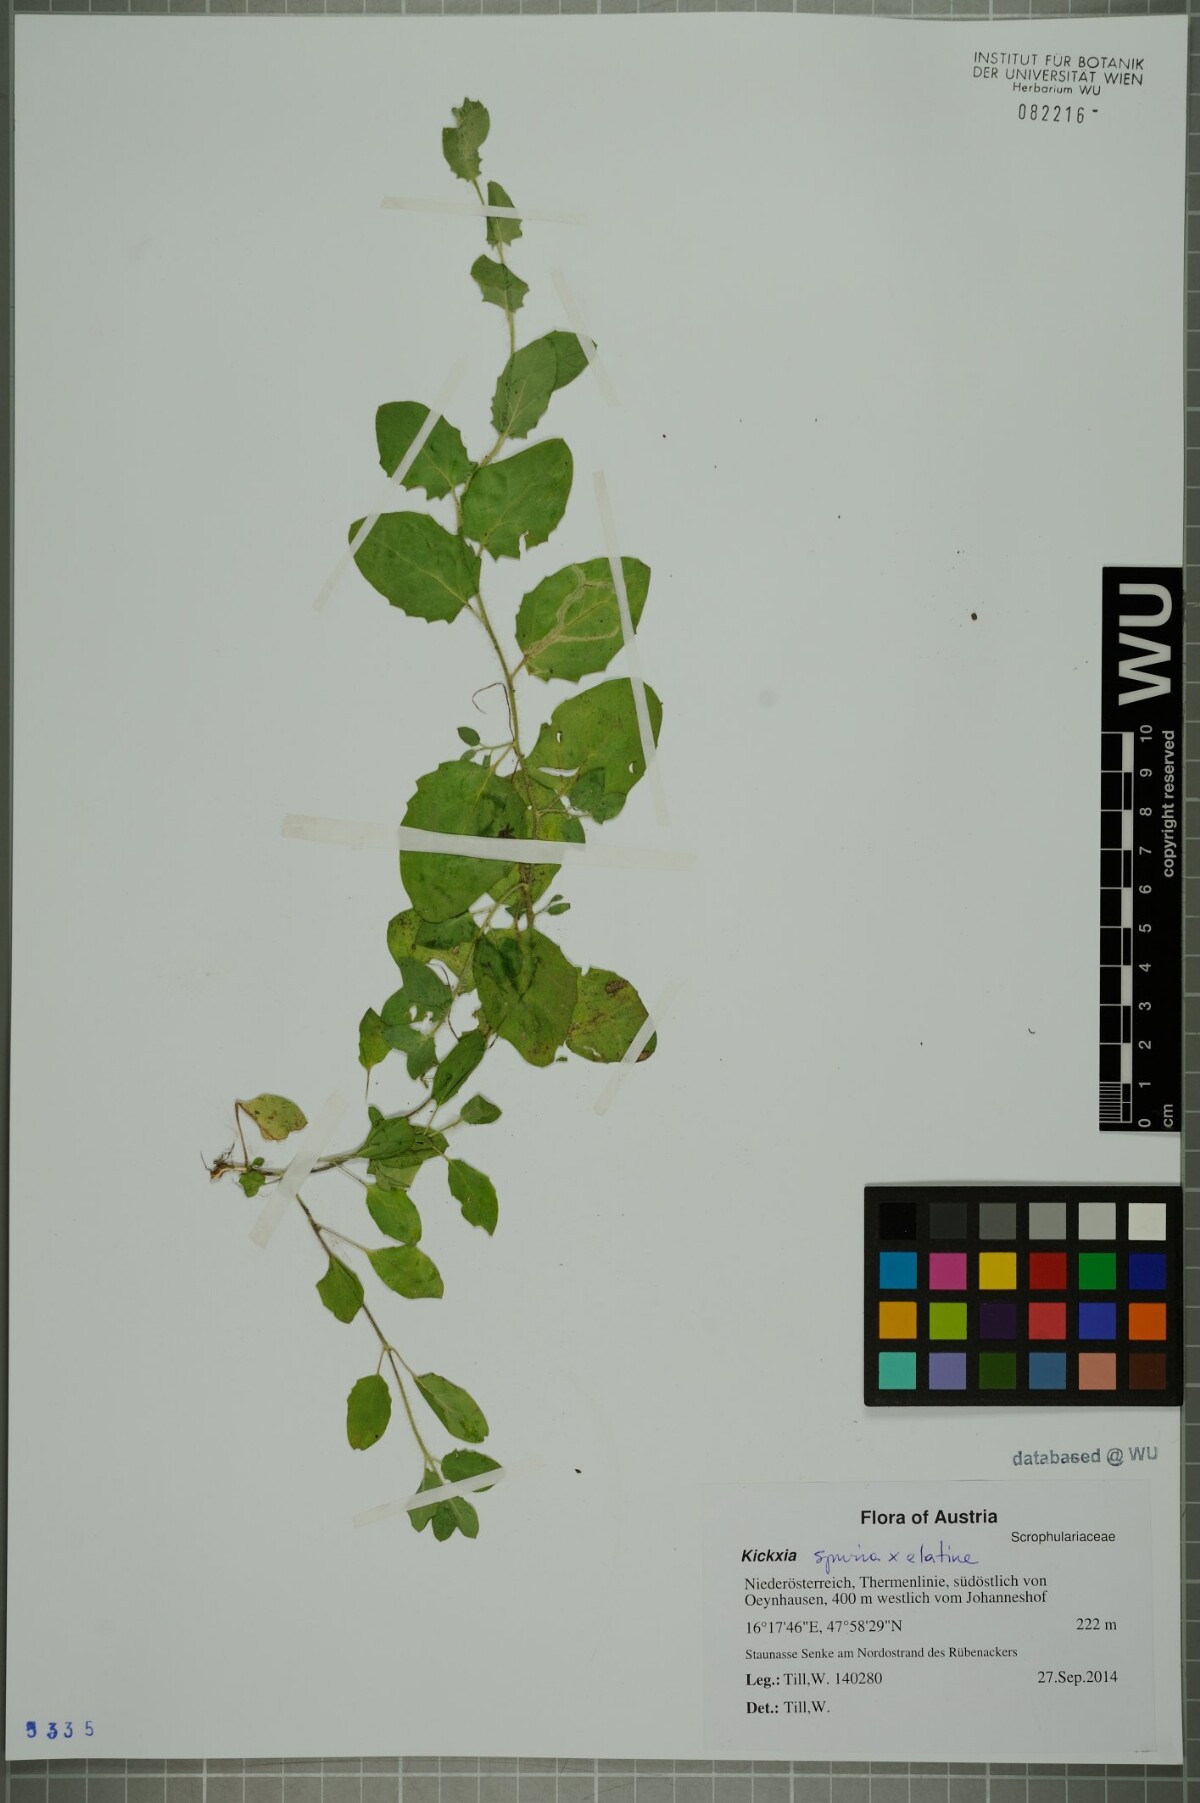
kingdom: Plantae
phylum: Tracheophyta
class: Magnoliopsida
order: Lamiales
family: Plantaginaceae
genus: Kickxia
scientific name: Kickxia
